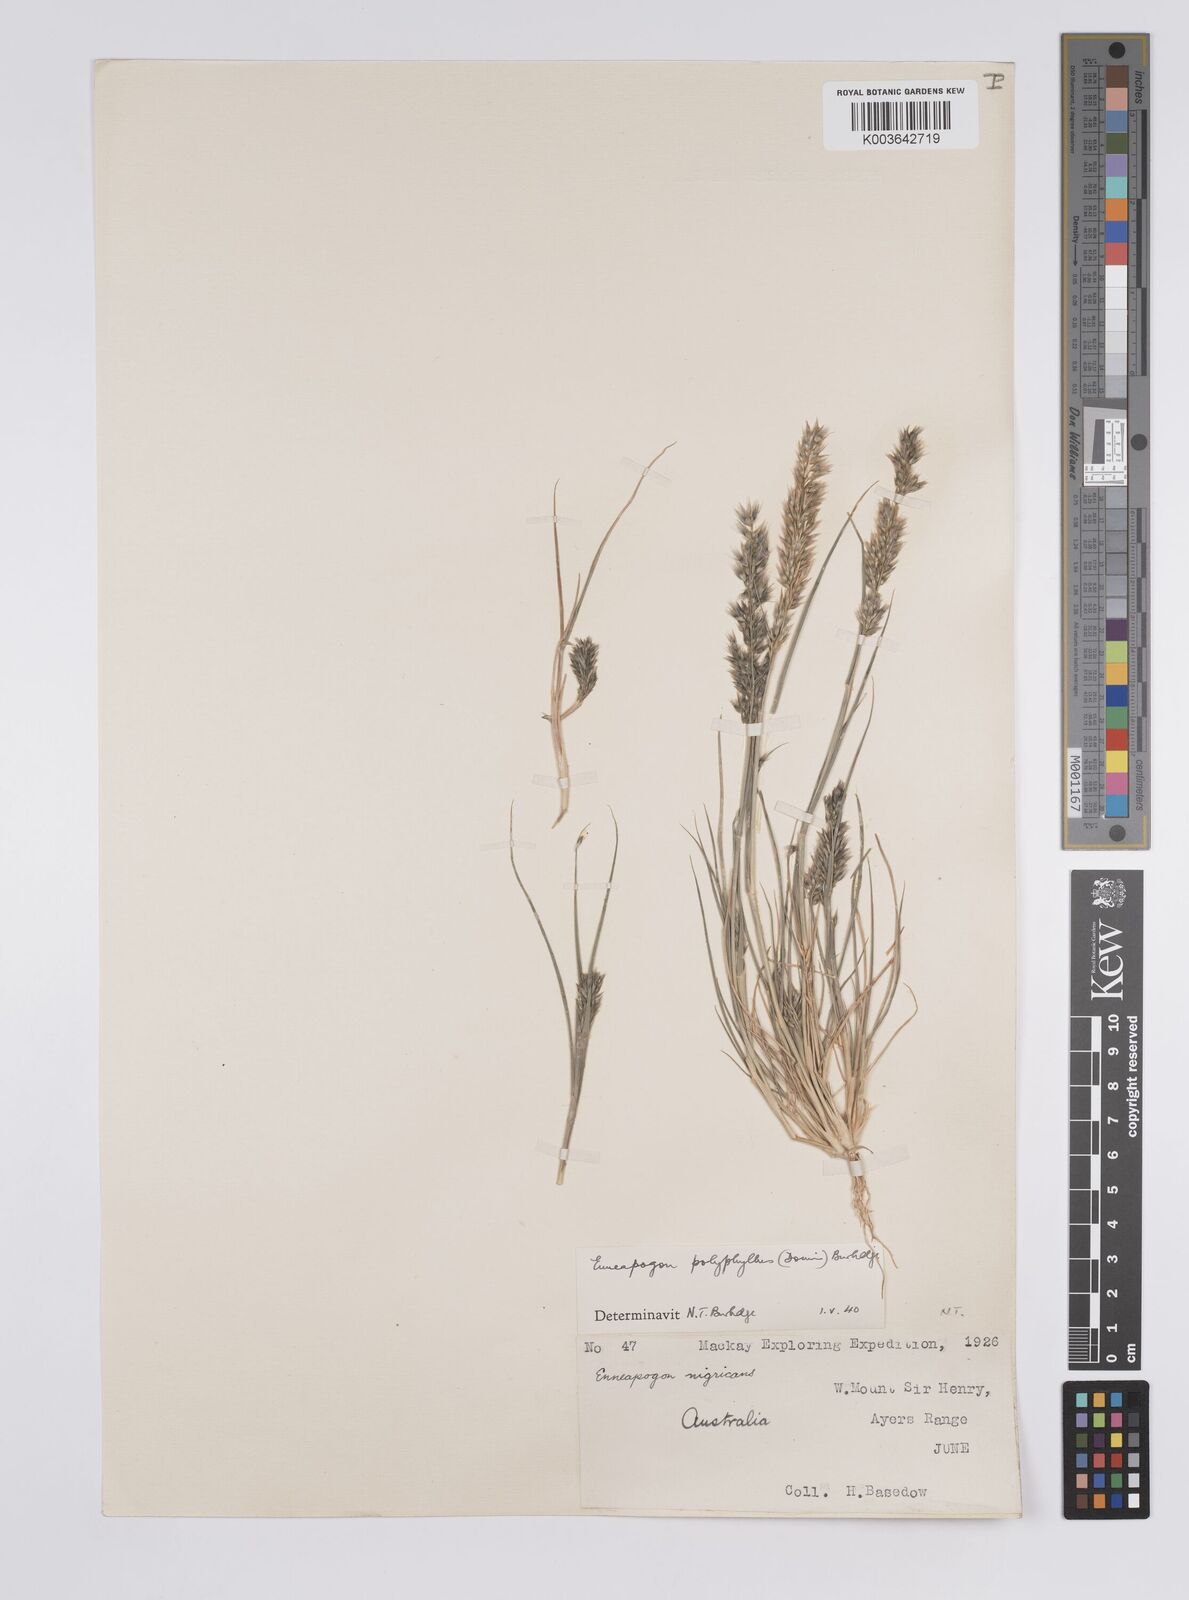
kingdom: Plantae
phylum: Tracheophyta
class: Liliopsida
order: Poales
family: Poaceae
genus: Enneapogon
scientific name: Enneapogon polyphyllus
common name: Leafy nineawn
